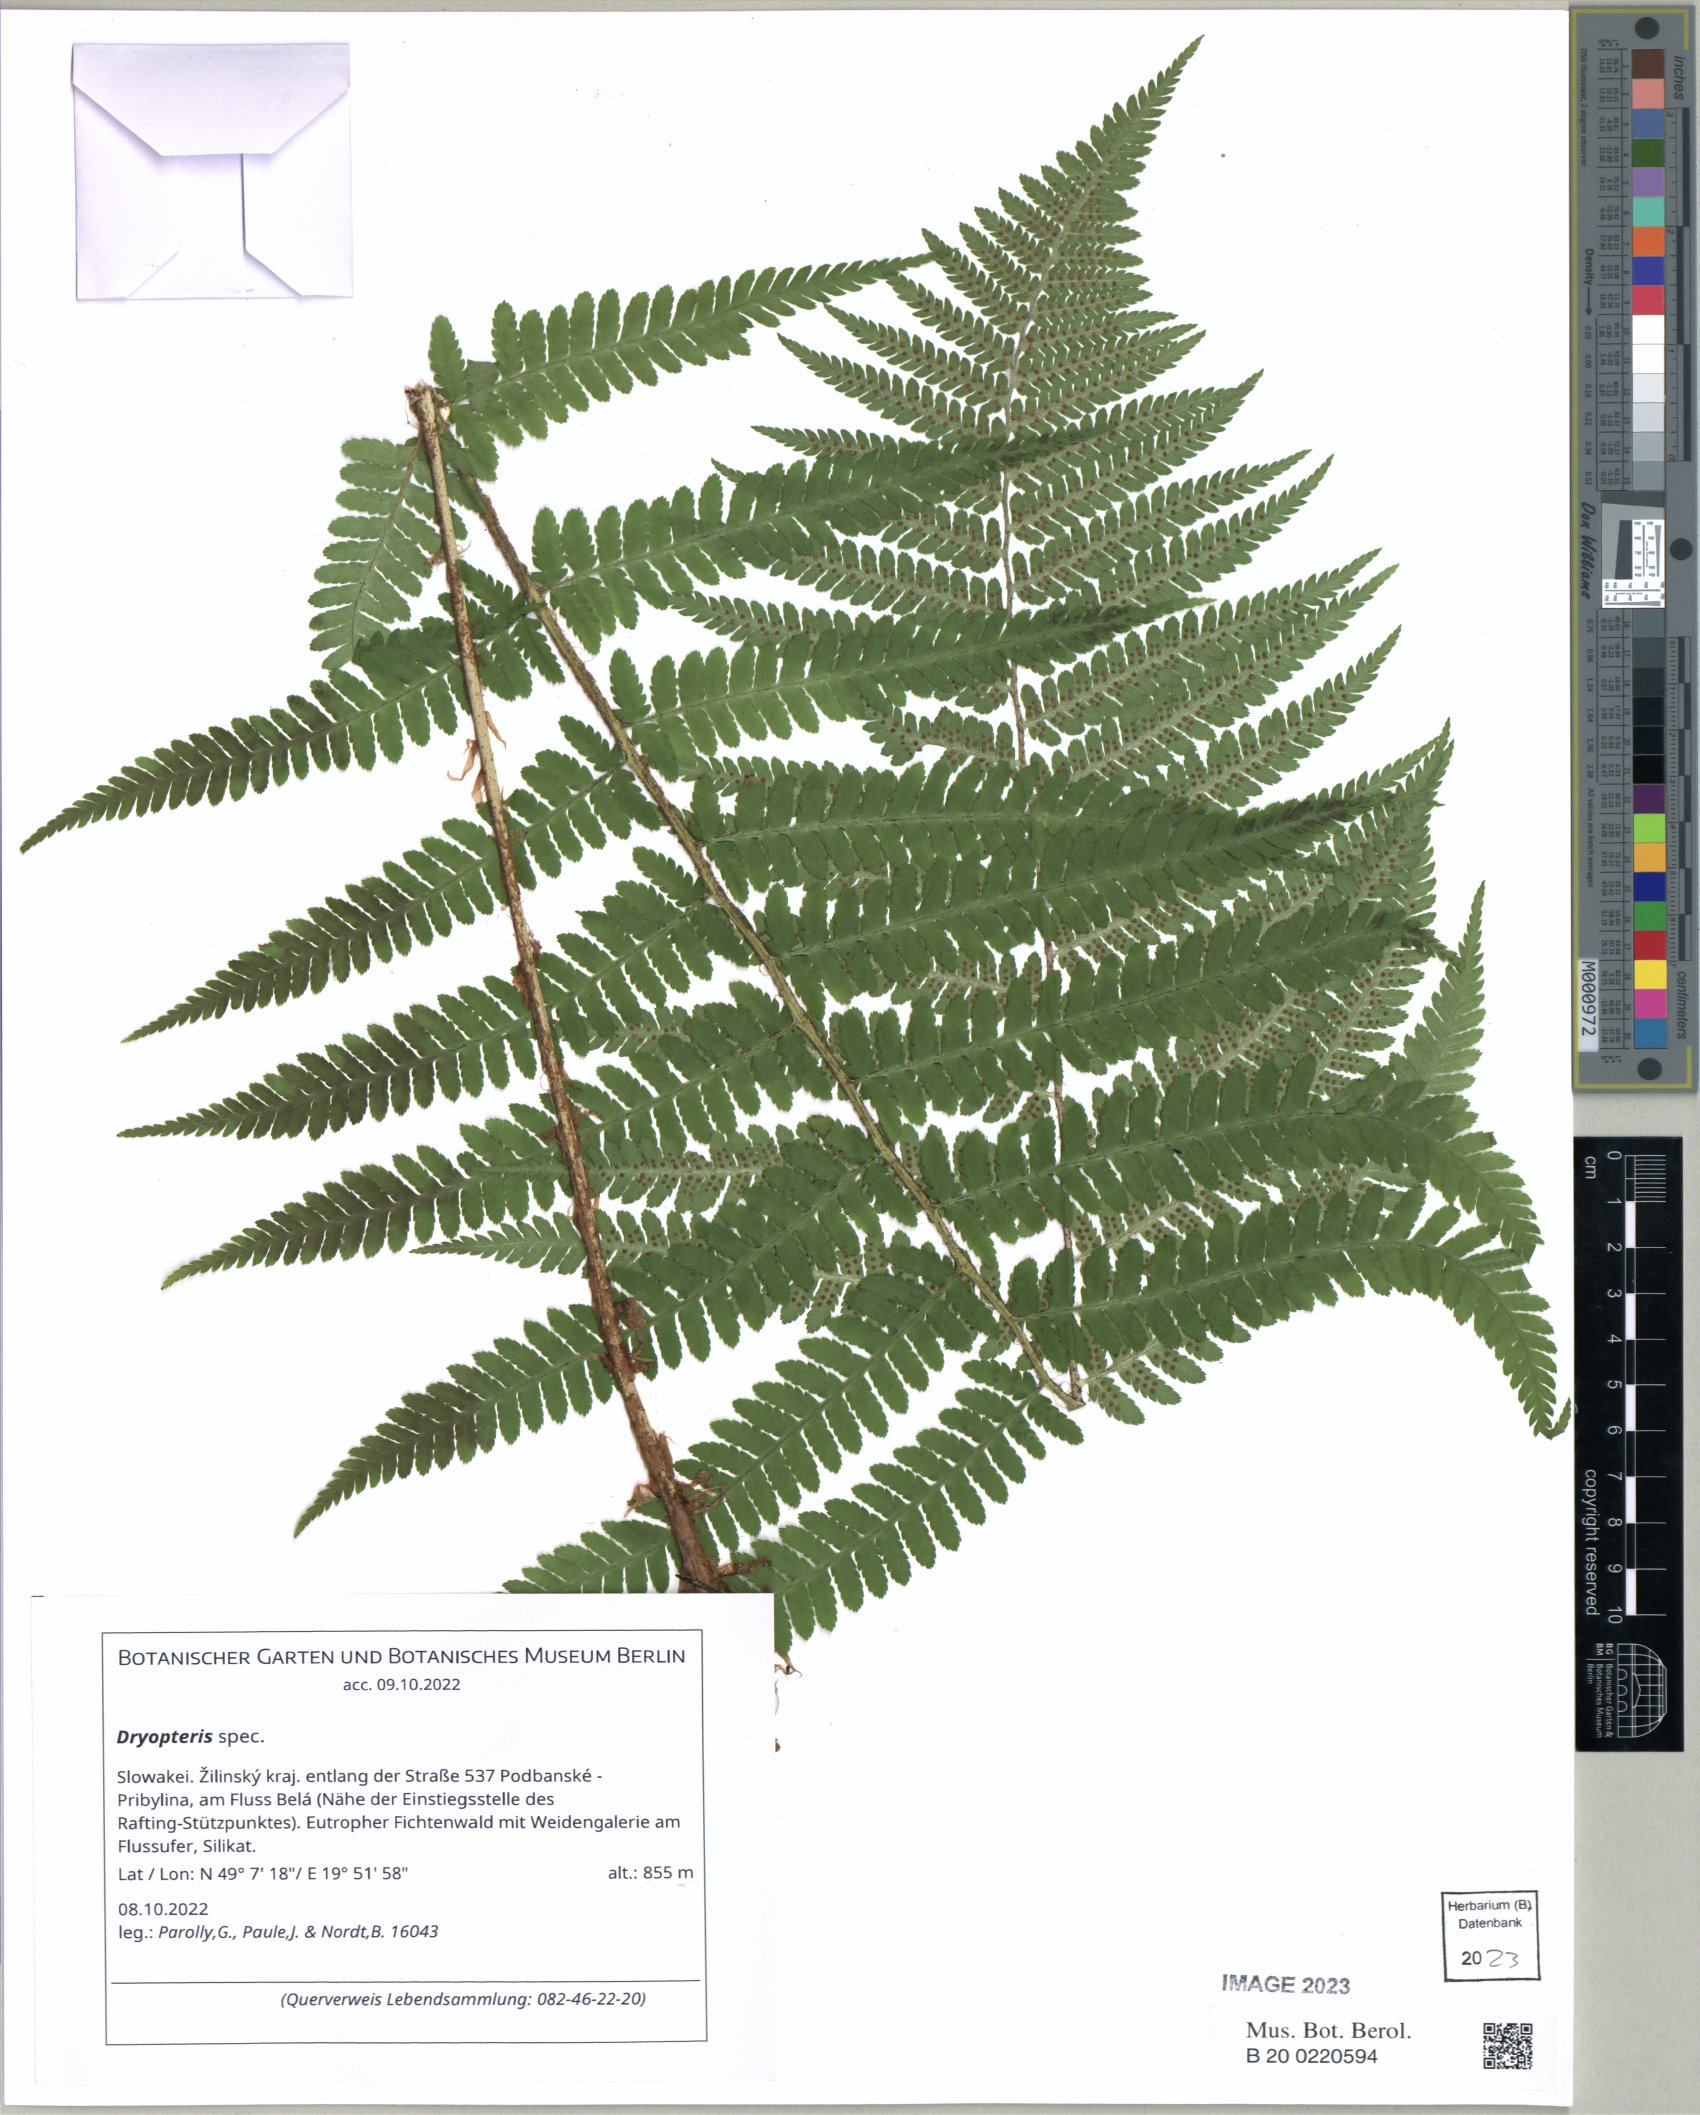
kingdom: Plantae
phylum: Tracheophyta
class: Polypodiopsida
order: Polypodiales
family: Dryopteridaceae
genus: Dryopteris
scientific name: Dryopteris cristata
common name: Crested wood fern
